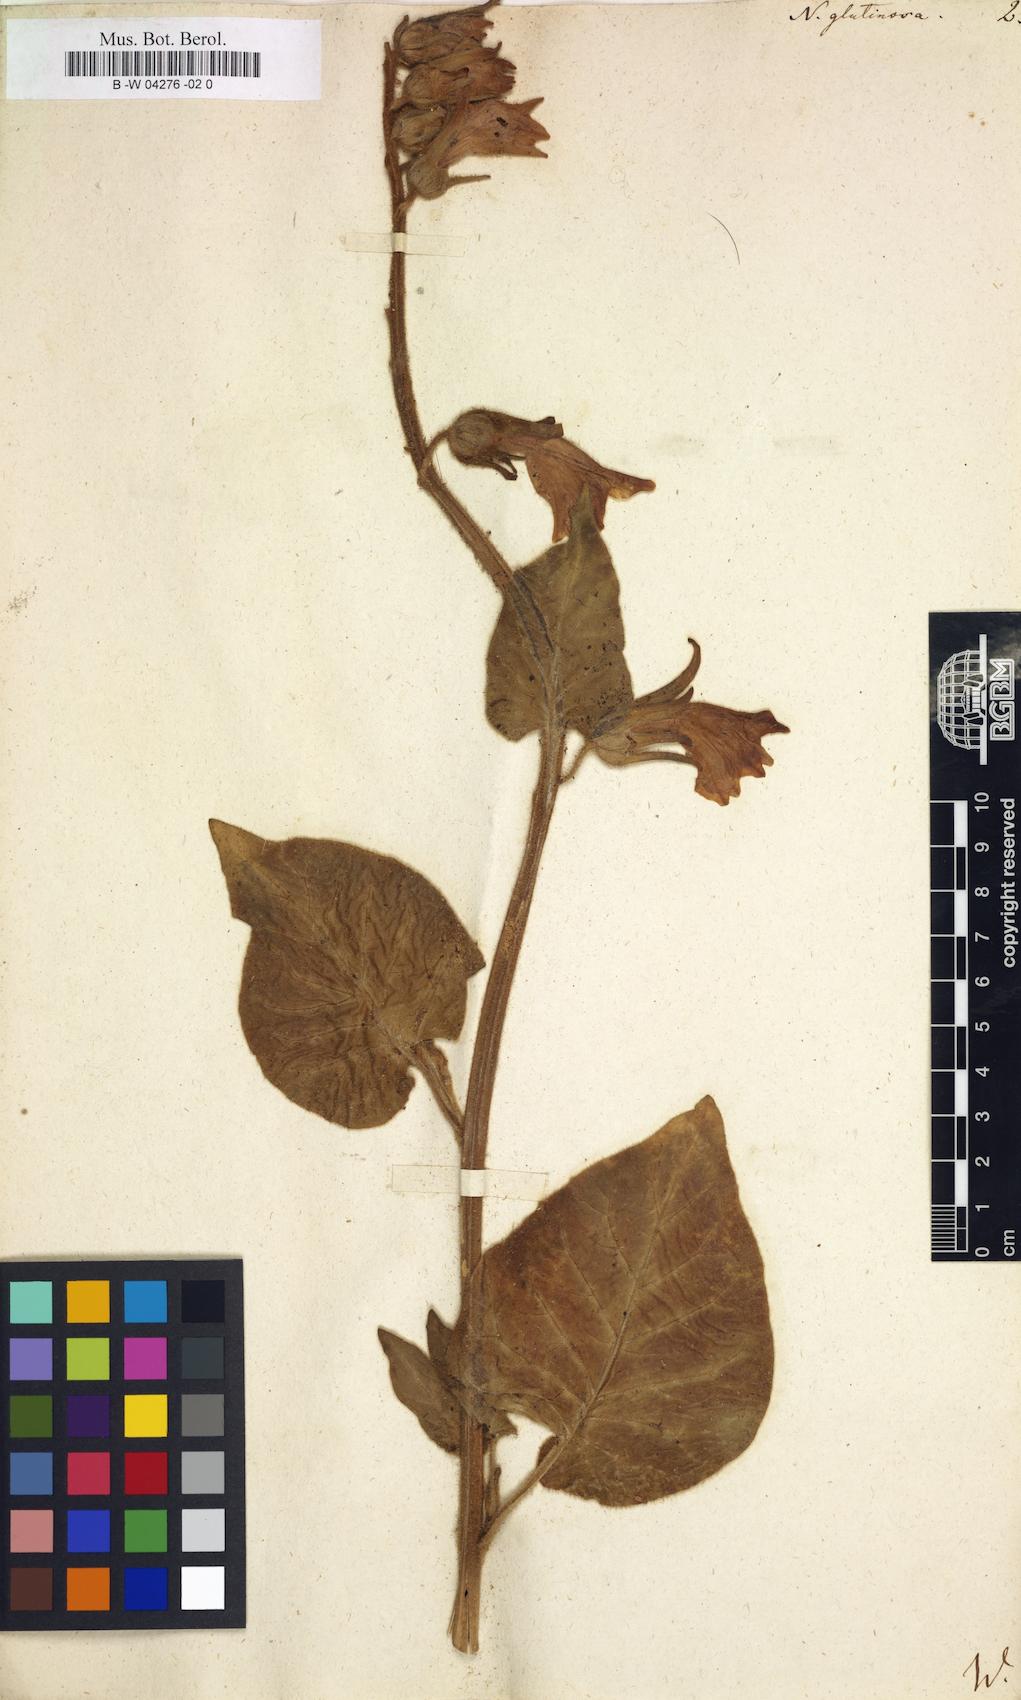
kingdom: Plantae
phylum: Tracheophyta
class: Magnoliopsida
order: Solanales
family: Solanaceae
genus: Nicotiana
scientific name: Nicotiana glutinosa
